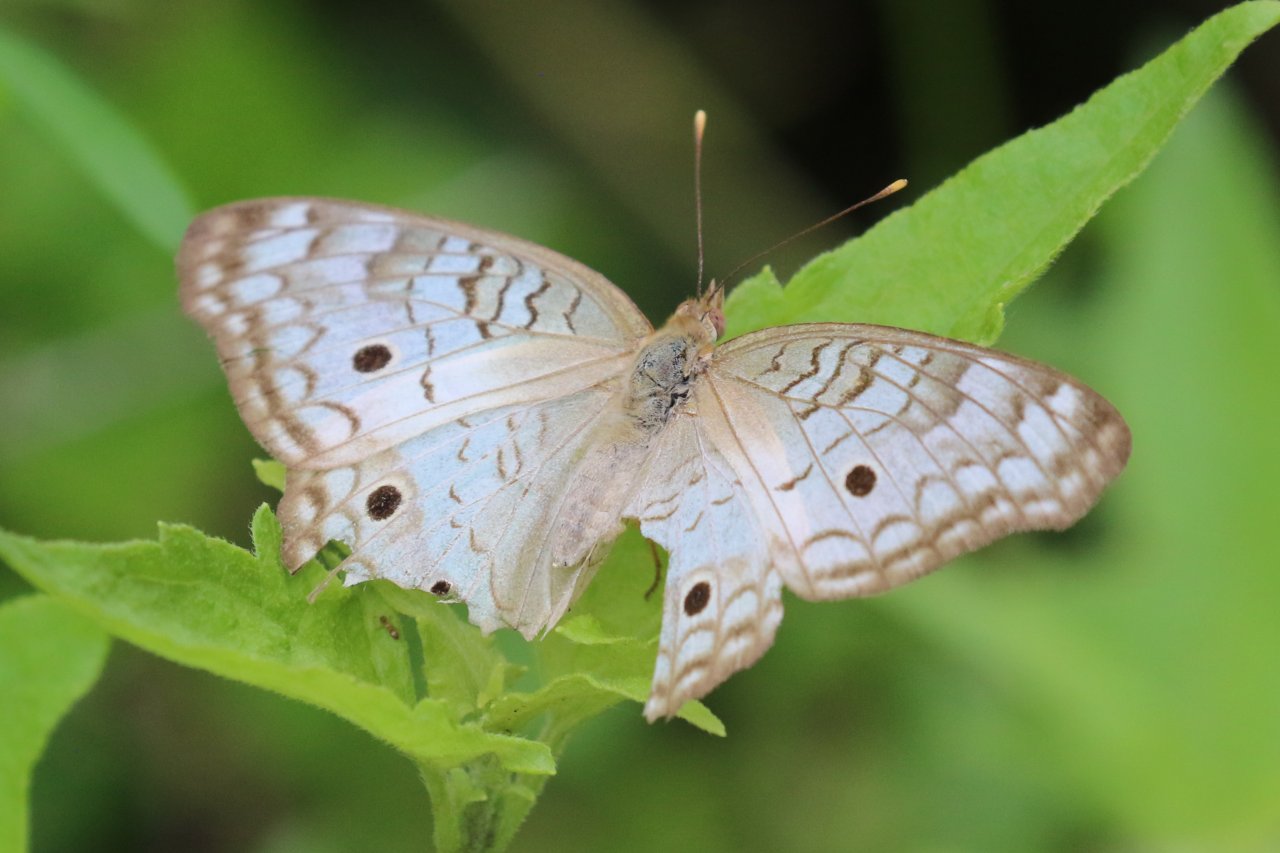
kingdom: Animalia
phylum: Arthropoda
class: Insecta
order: Lepidoptera
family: Nymphalidae
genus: Anartia
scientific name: Anartia jatrophae
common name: White Peacock
